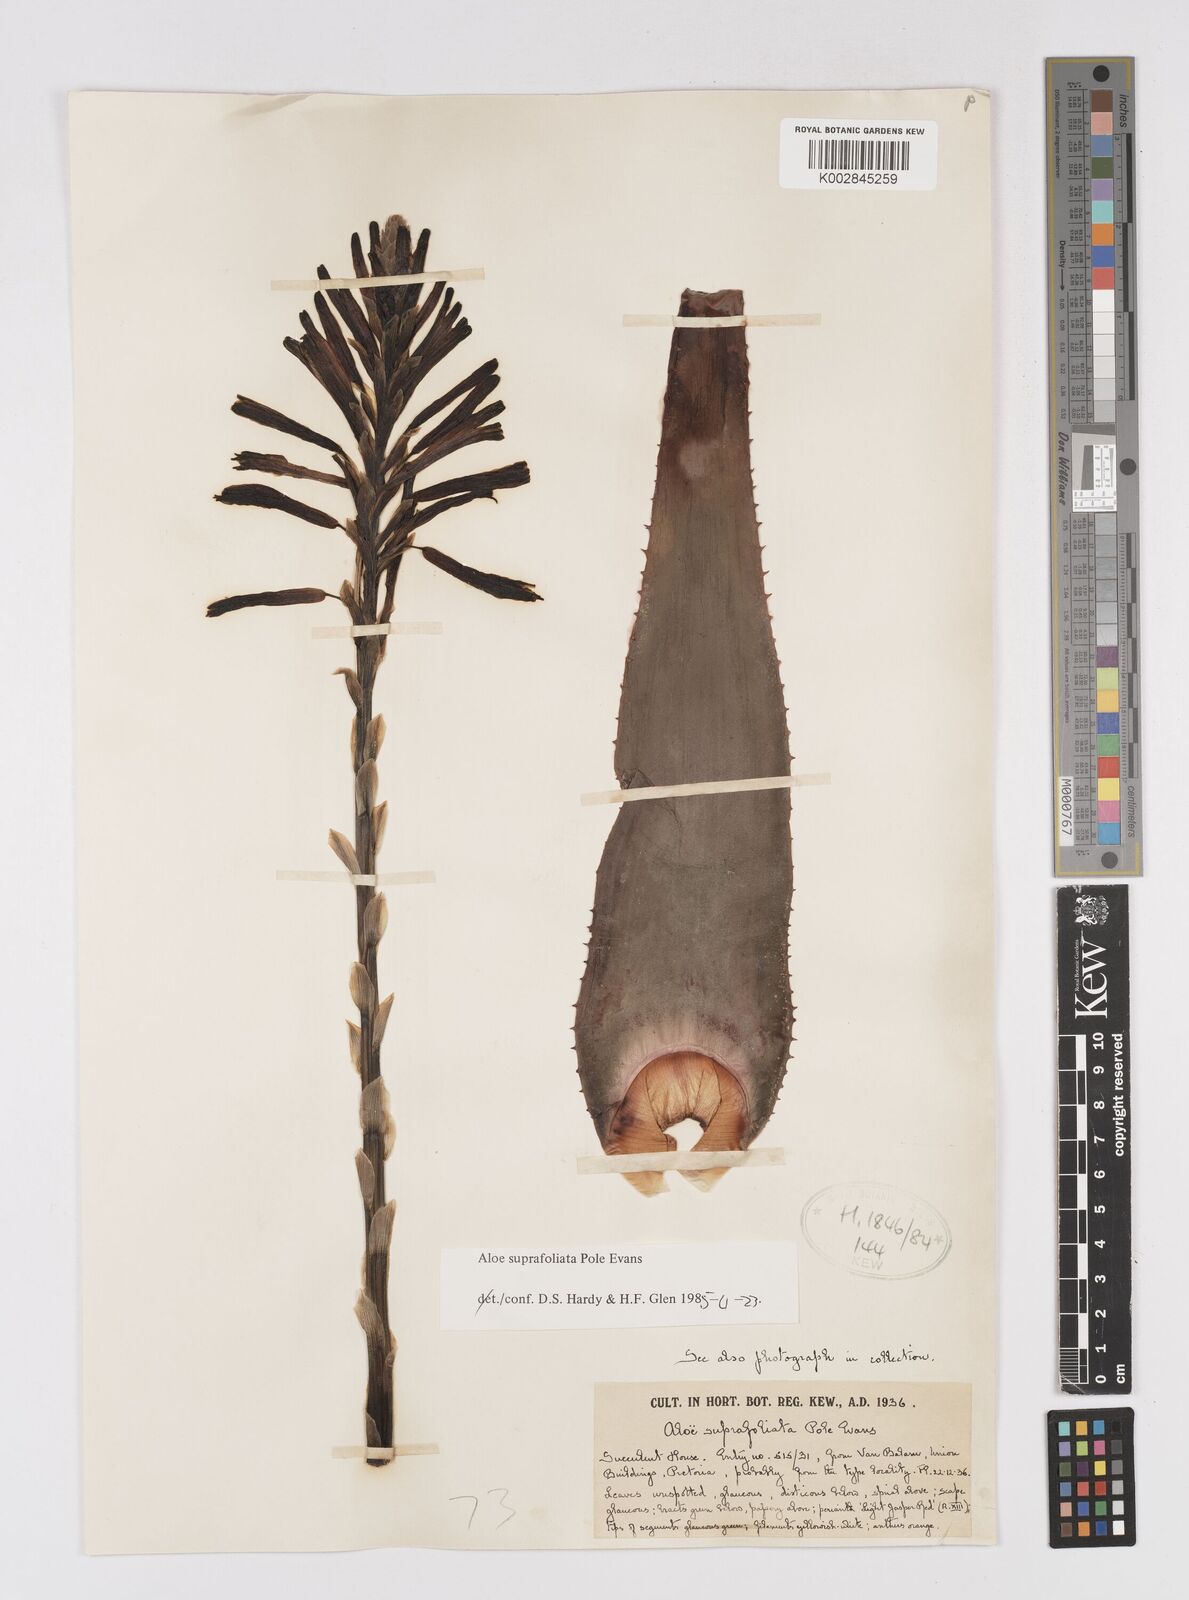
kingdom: Plantae
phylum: Tracheophyta
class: Liliopsida
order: Asparagales
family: Asphodelaceae
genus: Aloe
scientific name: Aloe suprafoliata
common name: Book aloe
